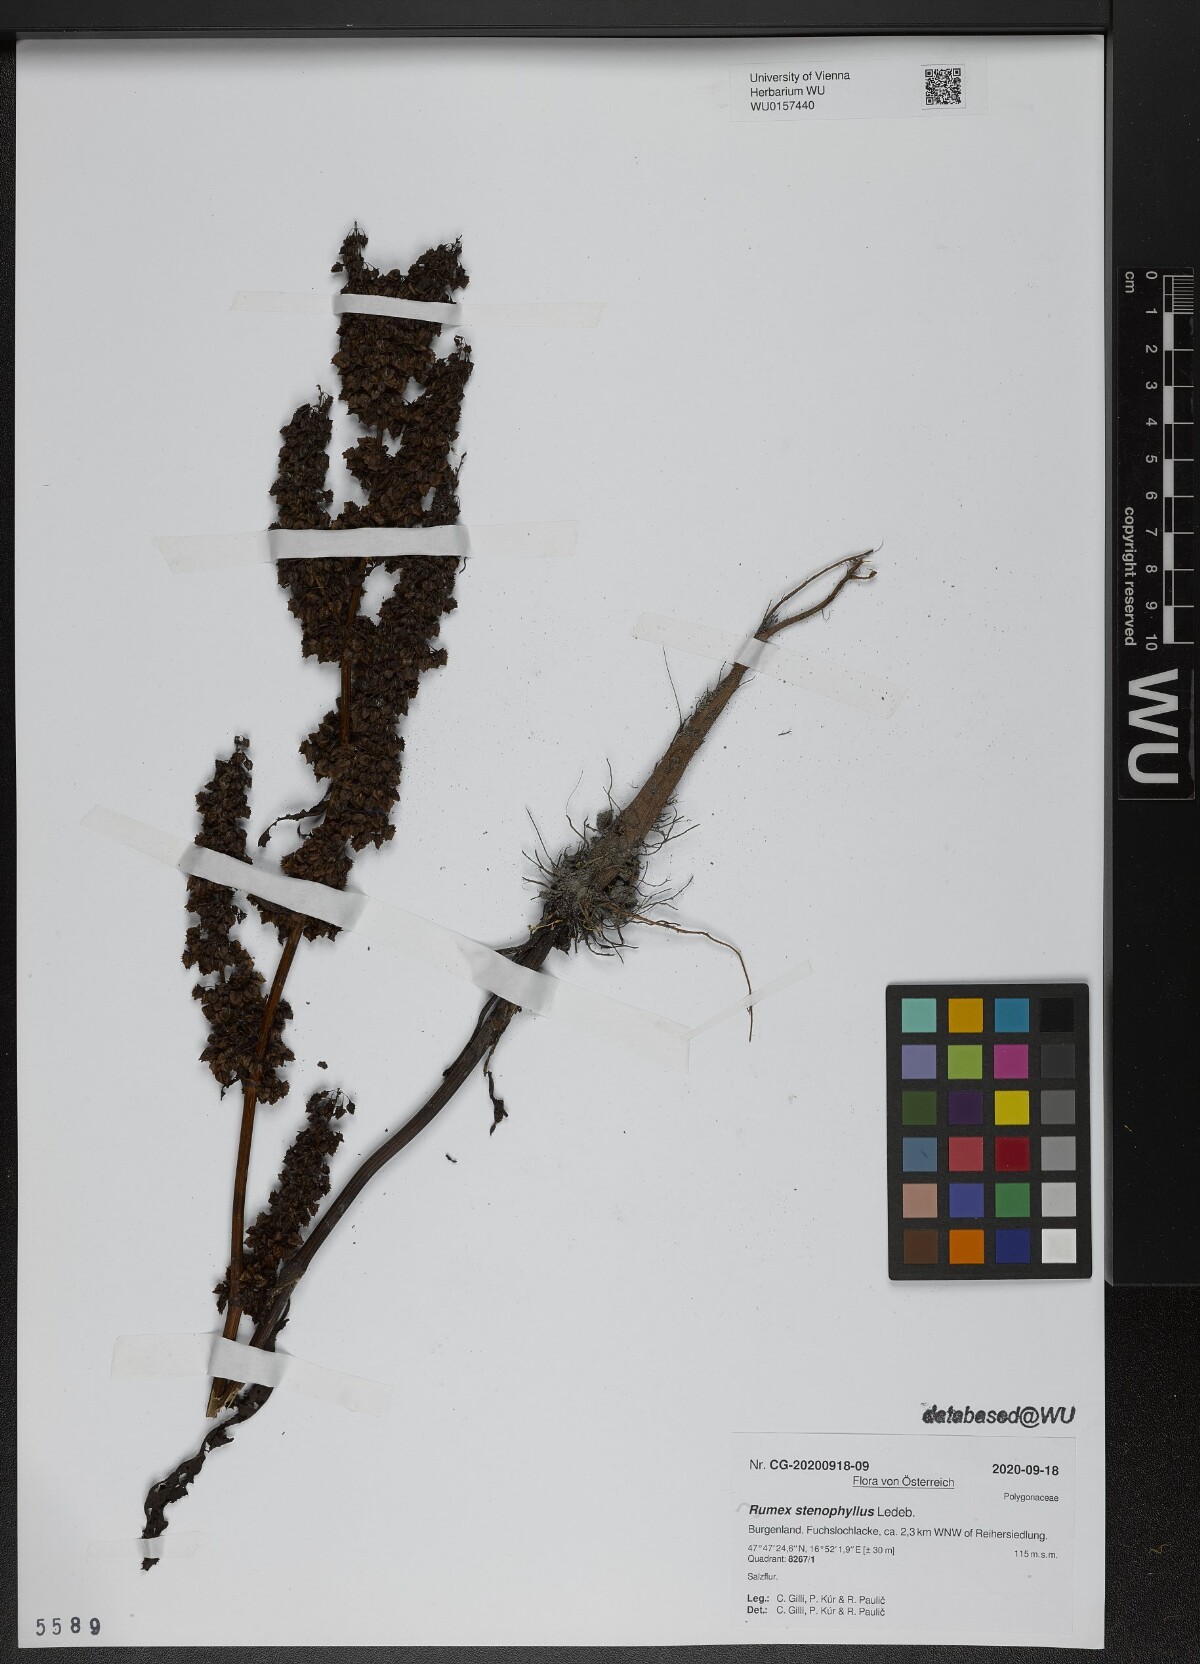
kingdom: Plantae
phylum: Tracheophyta
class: Magnoliopsida
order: Caryophyllales
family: Polygonaceae
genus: Rumex
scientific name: Rumex stenophyllus
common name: Narrowleaf dock
